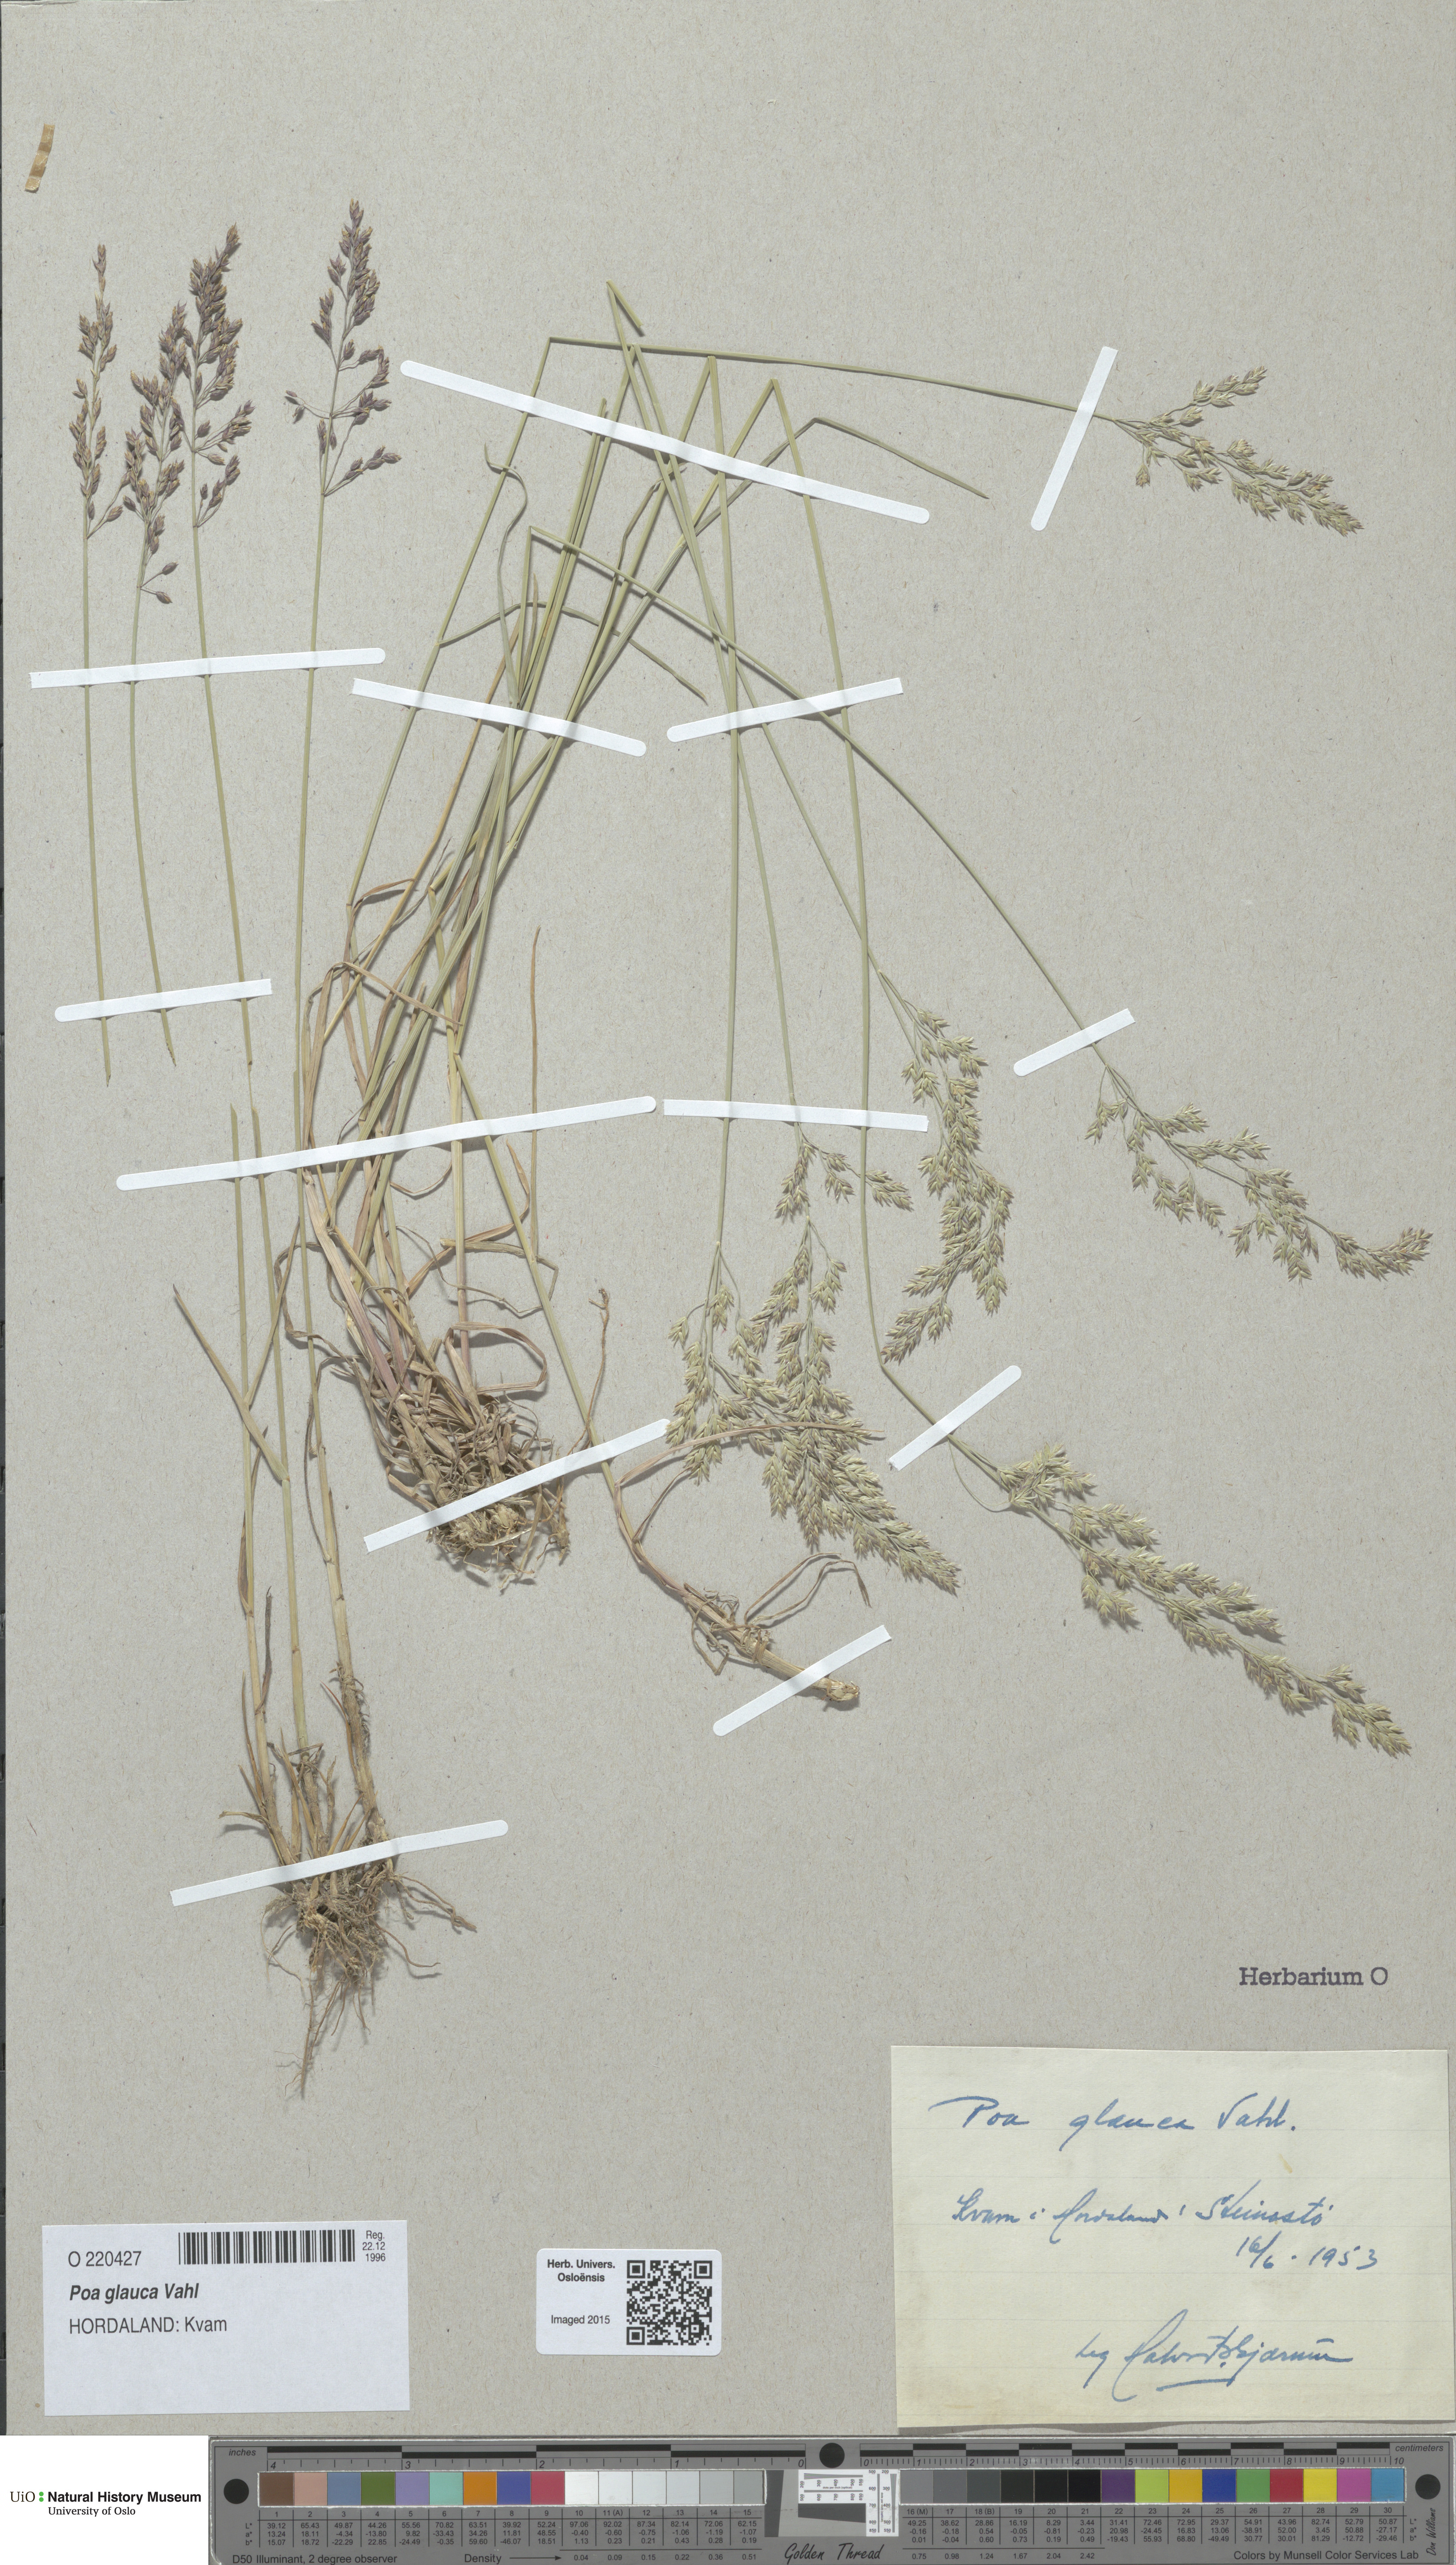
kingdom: Plantae
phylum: Tracheophyta
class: Liliopsida
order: Poales
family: Poaceae
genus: Poa
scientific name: Poa glauca
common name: Glaucous bluegrass
